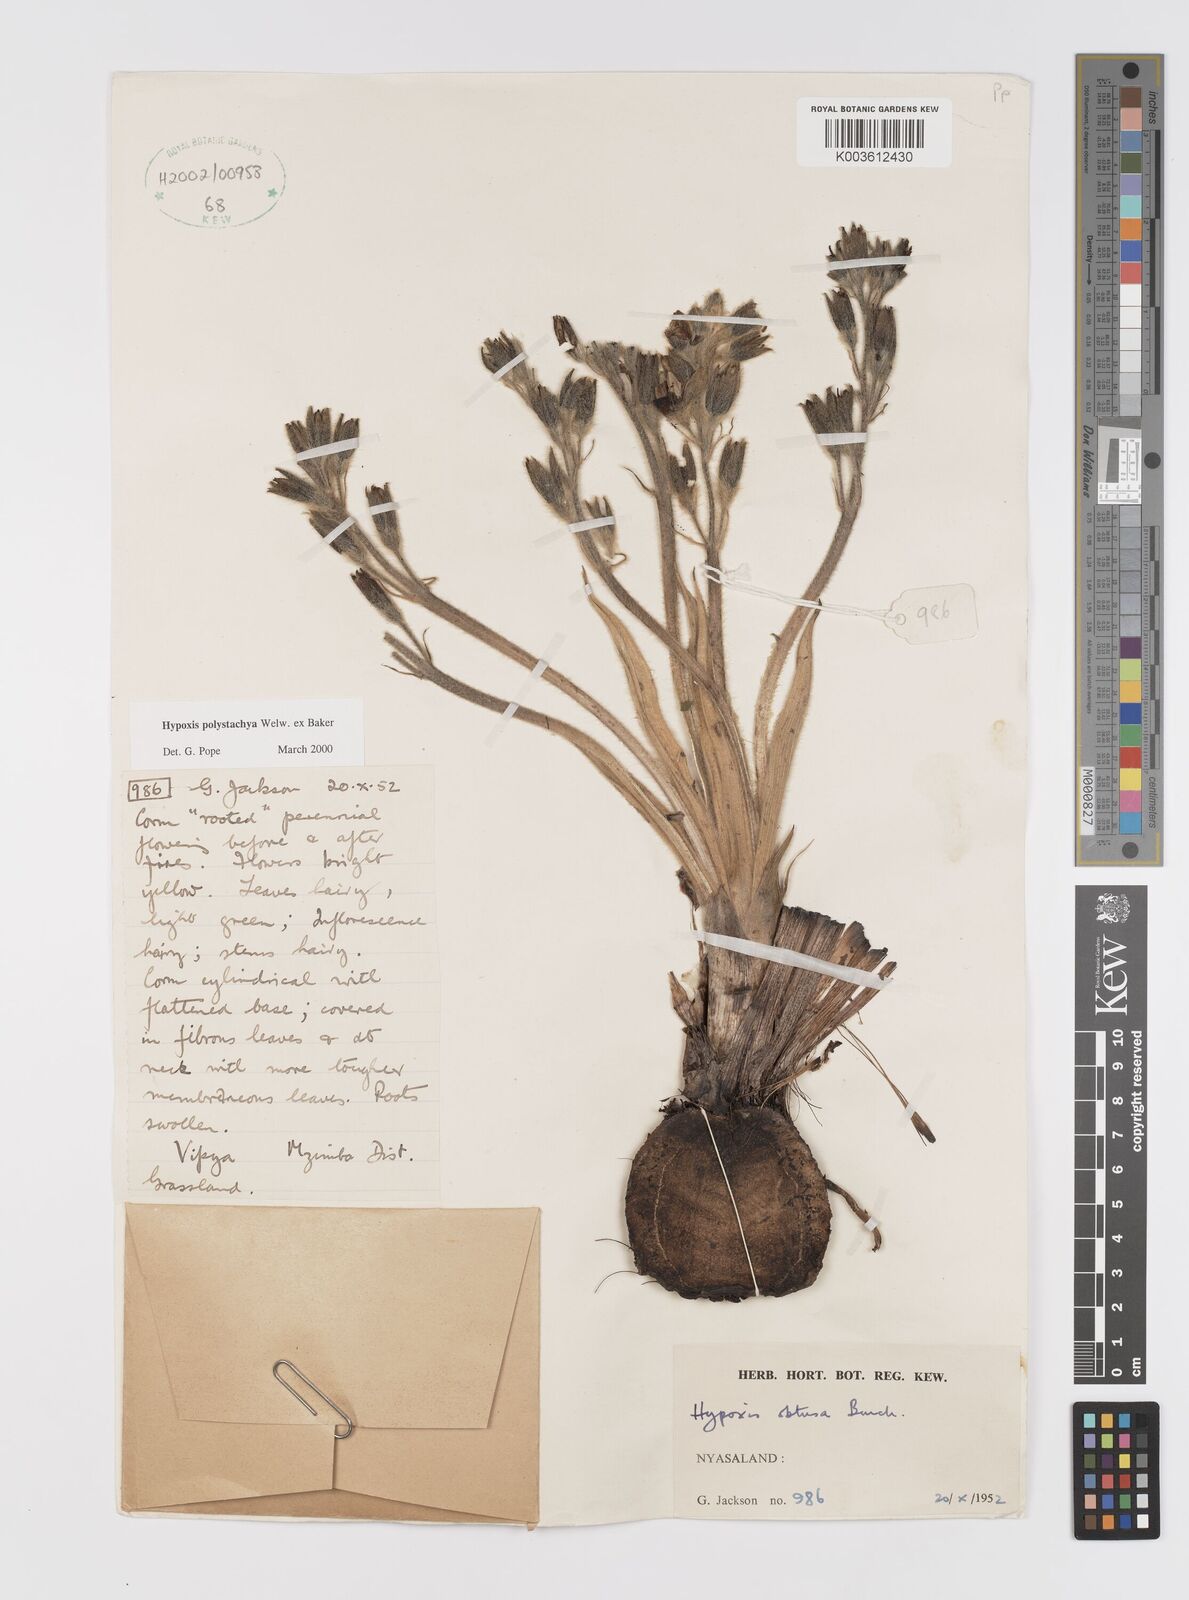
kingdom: Plantae
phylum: Tracheophyta
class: Liliopsida
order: Asparagales
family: Hypoxidaceae
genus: Hypoxis
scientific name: Hypoxis polystachya
